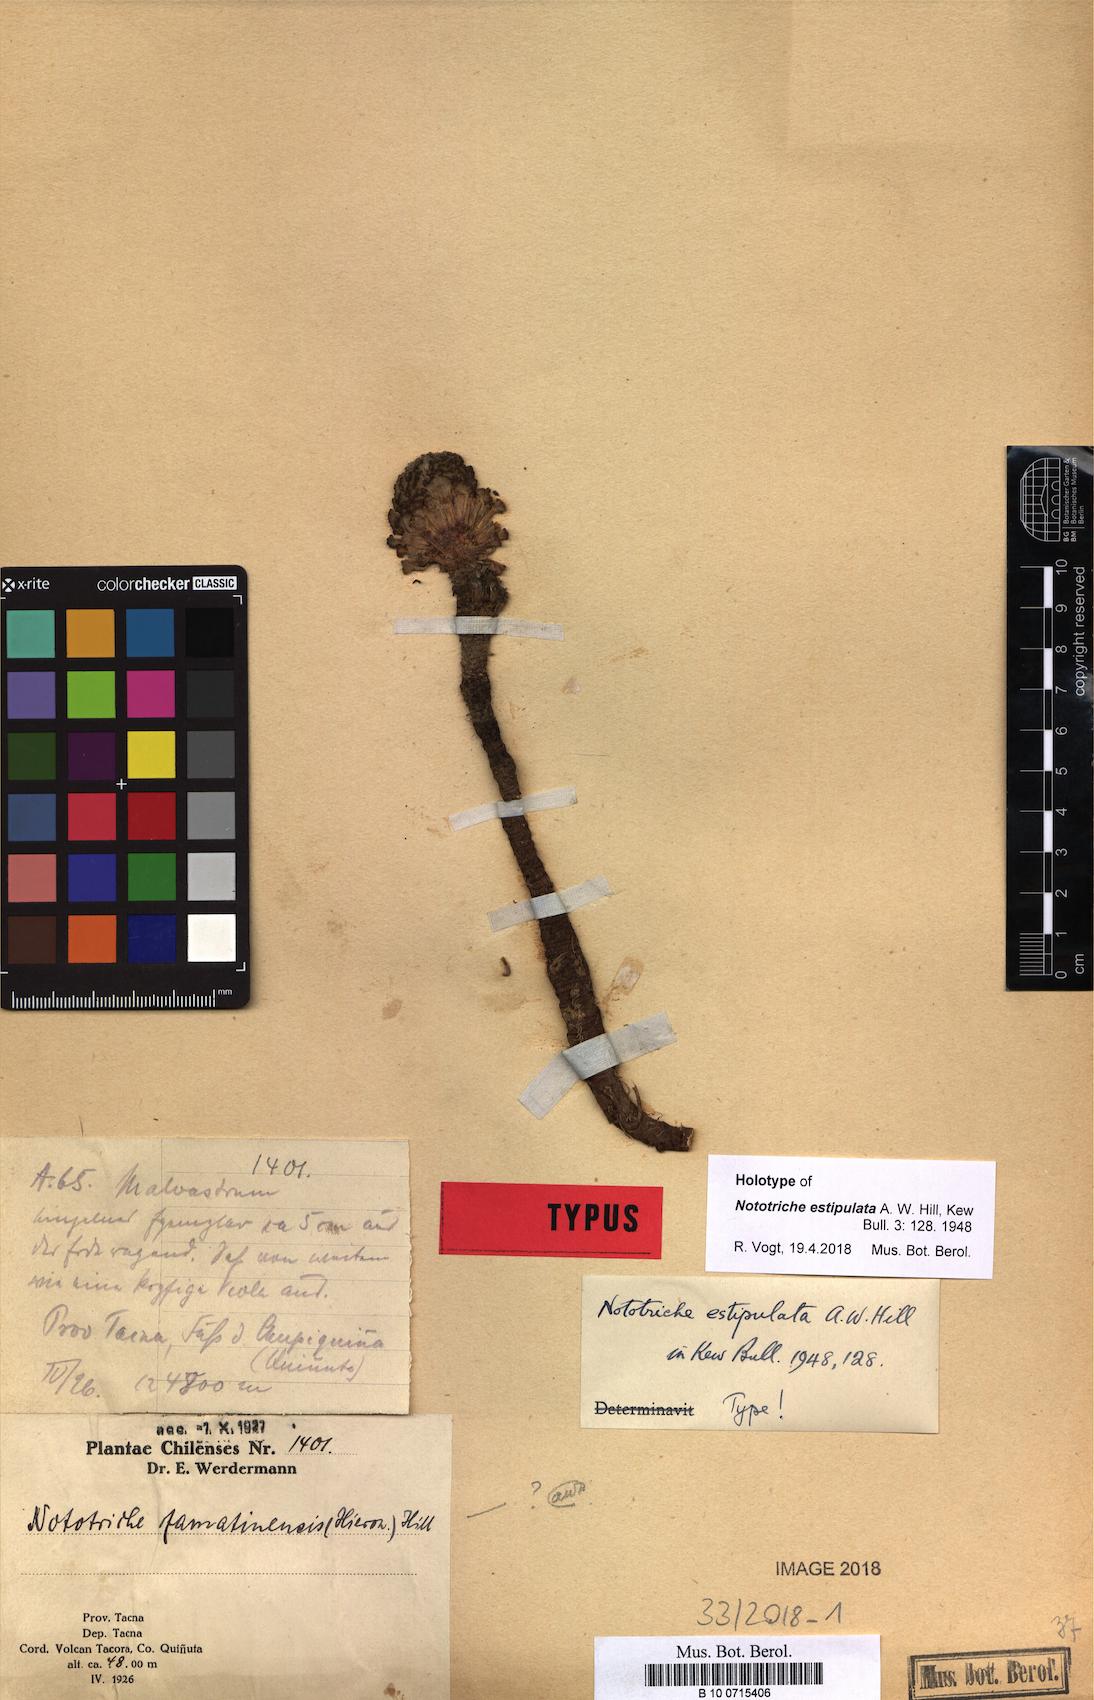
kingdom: Plantae
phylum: Tracheophyta
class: Magnoliopsida
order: Malvales
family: Malvaceae
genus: Nototriche
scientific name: Nototriche estipulata
